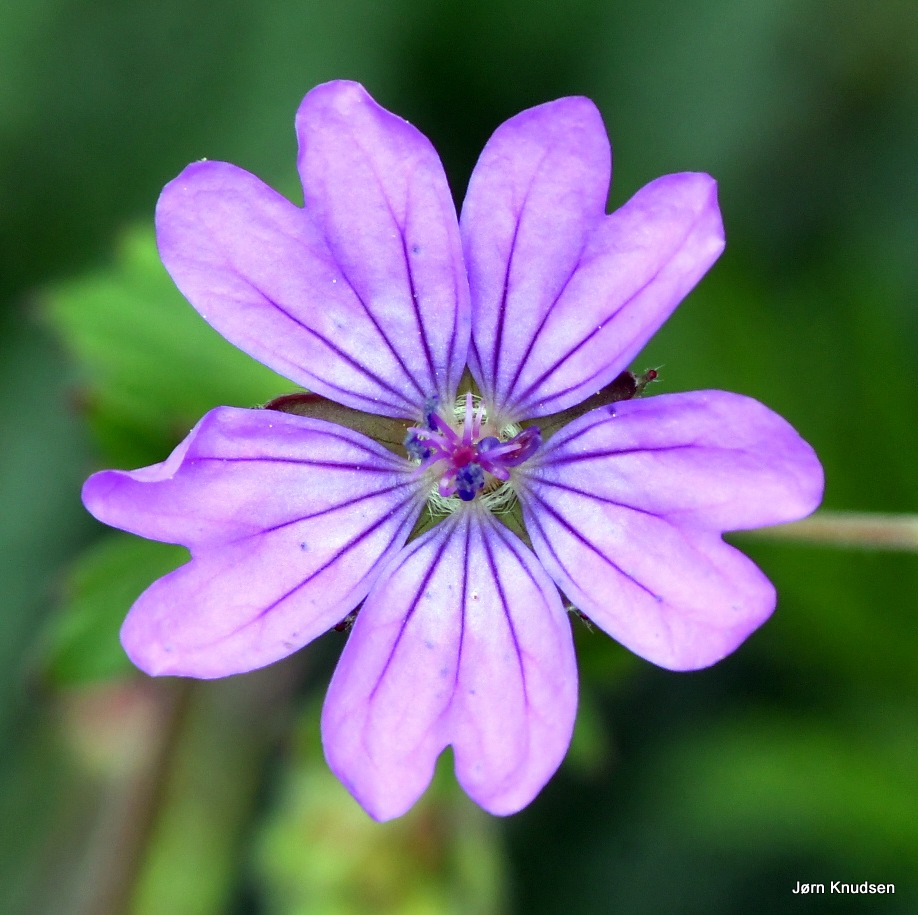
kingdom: Plantae
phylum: Tracheophyta
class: Magnoliopsida
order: Geraniales
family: Geraniaceae
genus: Geranium
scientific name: Geranium pyrenaicum
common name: Pyrenæisk storkenæb
